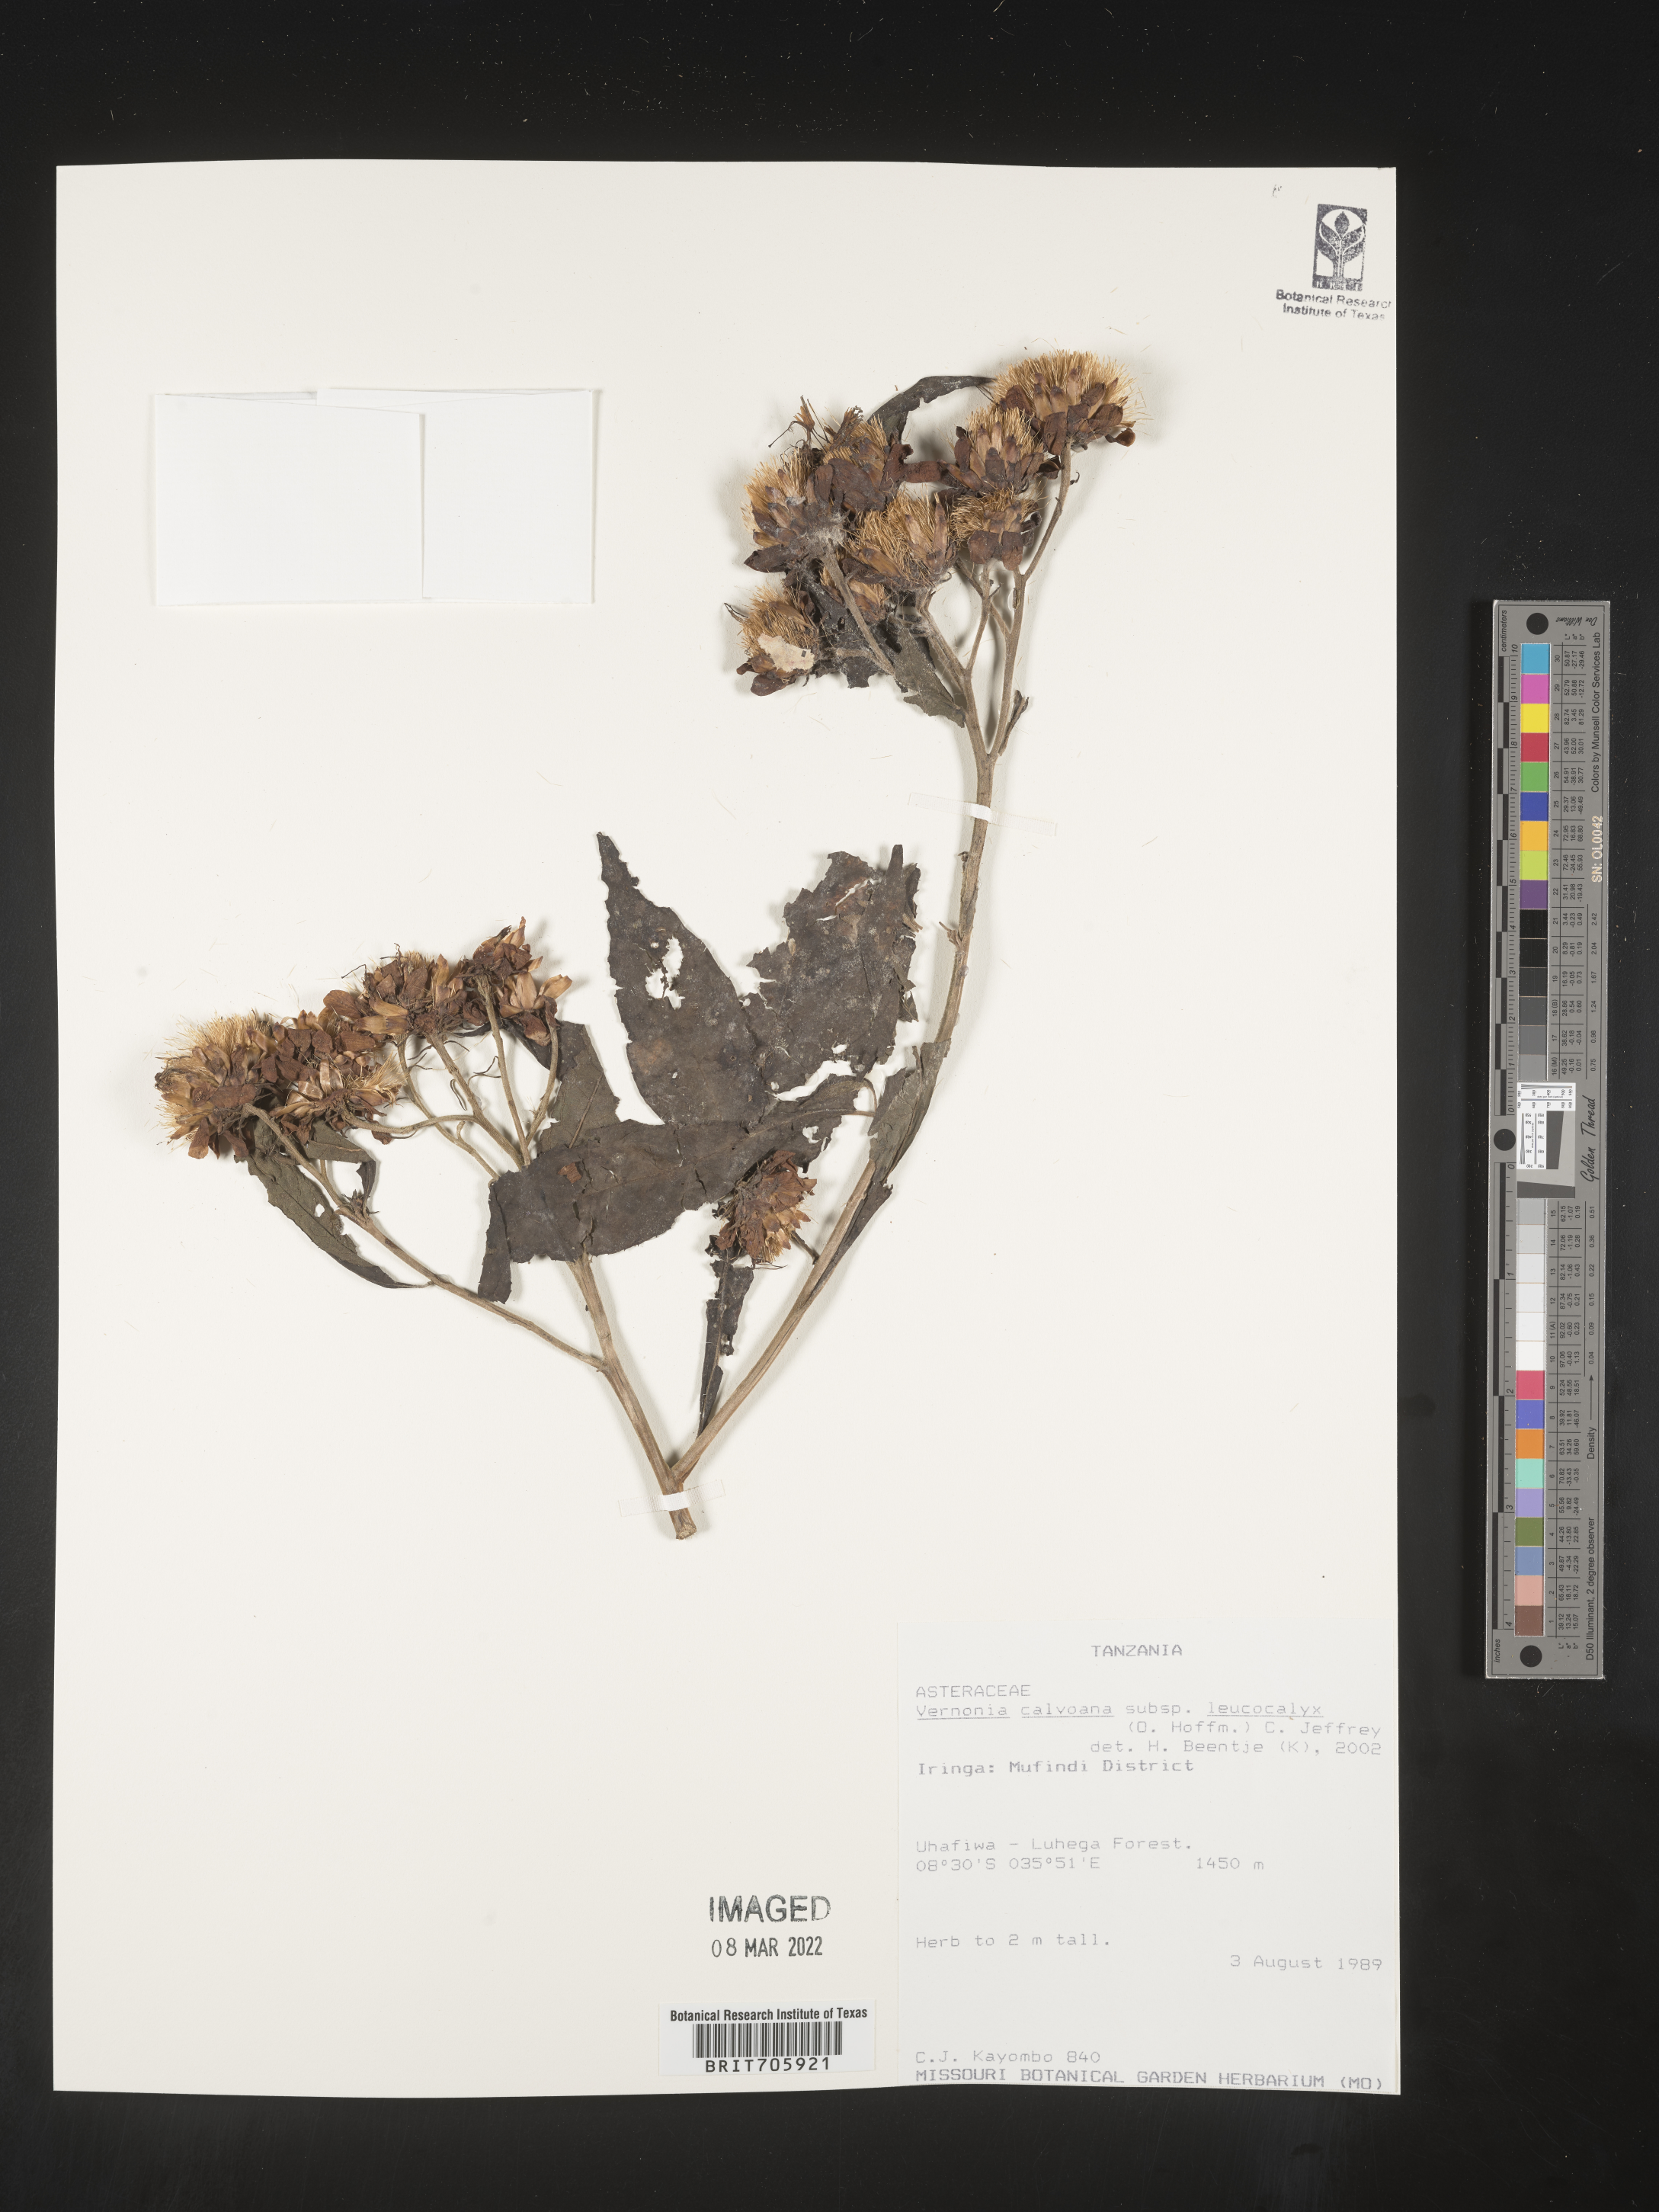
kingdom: Plantae
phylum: Tracheophyta
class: Magnoliopsida
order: Asterales
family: Asteraceae
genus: Vernonia
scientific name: Vernonia
